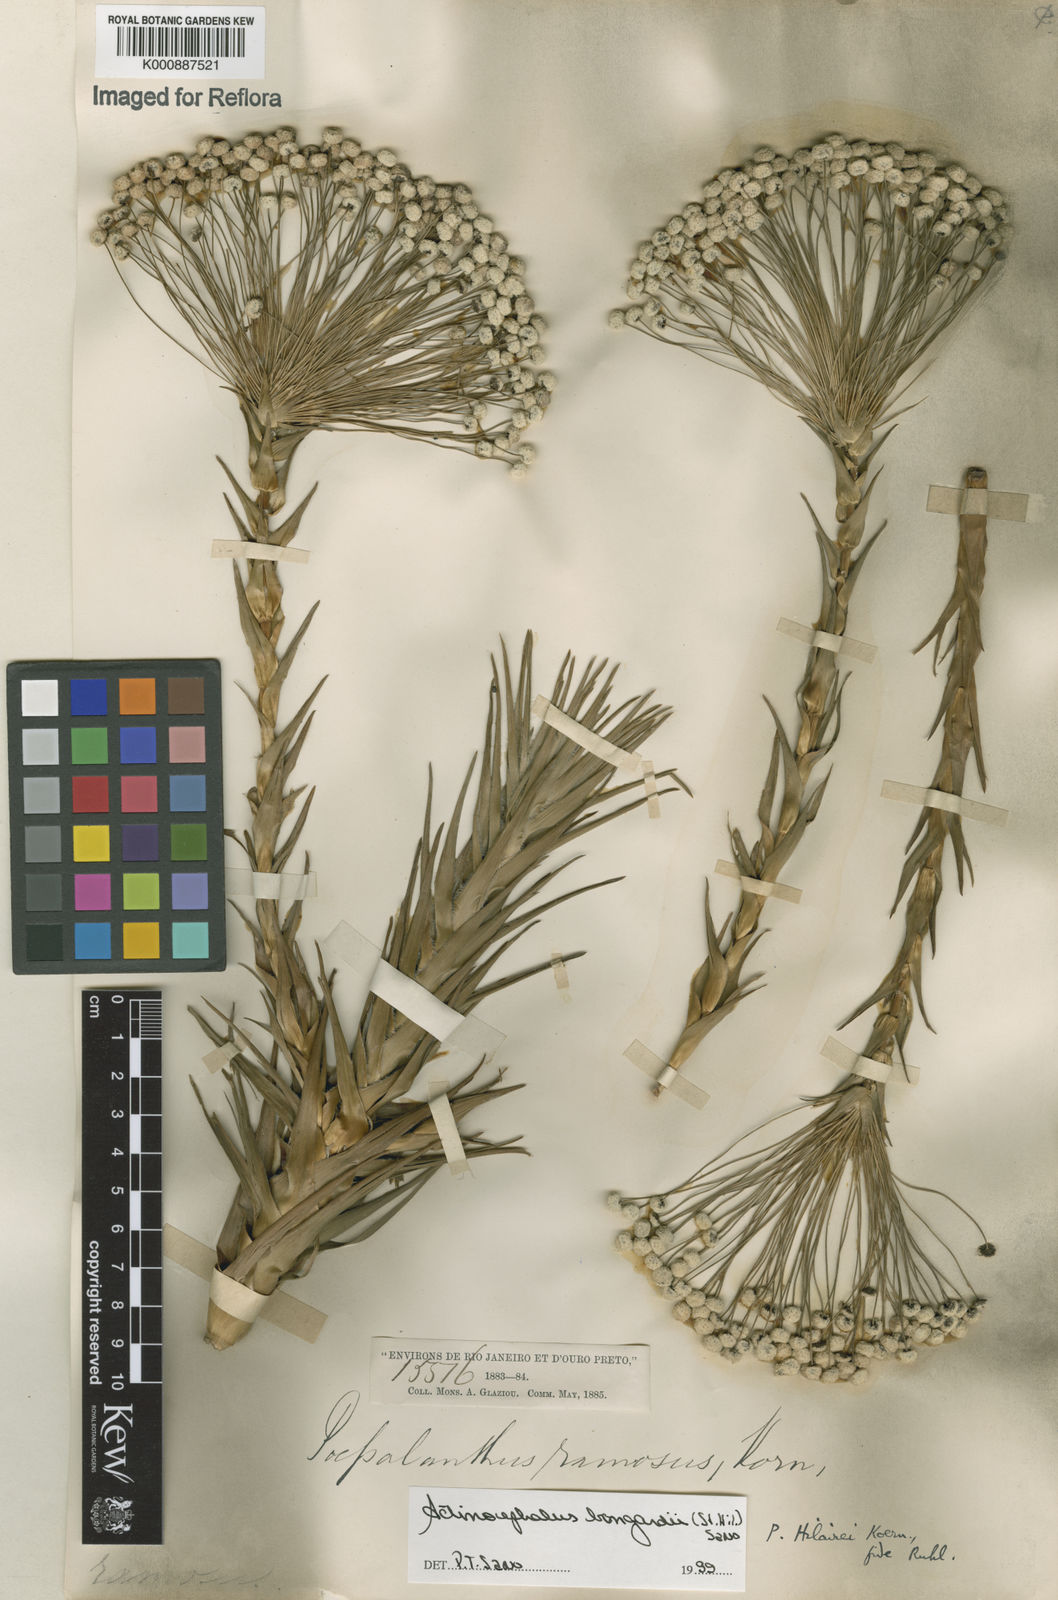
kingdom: Plantae
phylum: Tracheophyta
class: Liliopsida
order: Poales
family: Eriocaulaceae
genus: Paepalanthus
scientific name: Paepalanthus hilairei
